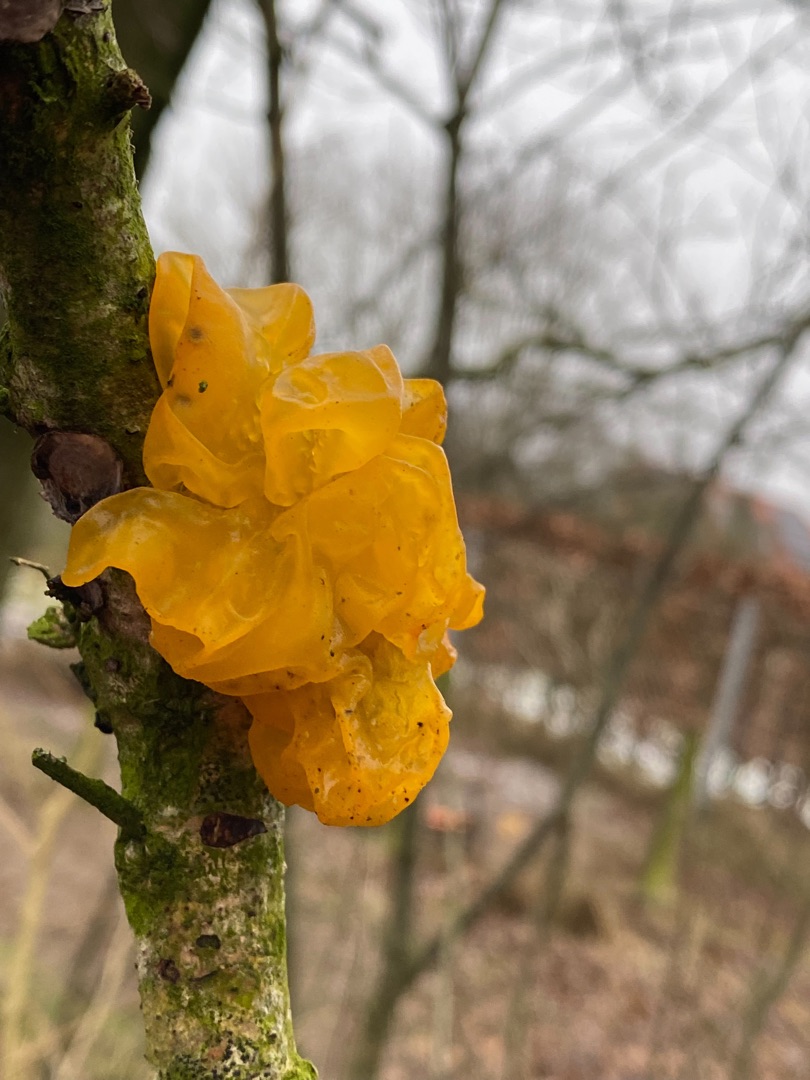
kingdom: Fungi
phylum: Basidiomycota
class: Tremellomycetes
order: Tremellales
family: Tremellaceae
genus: Tremella
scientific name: Tremella mesenterica
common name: Gul bævresvamp
